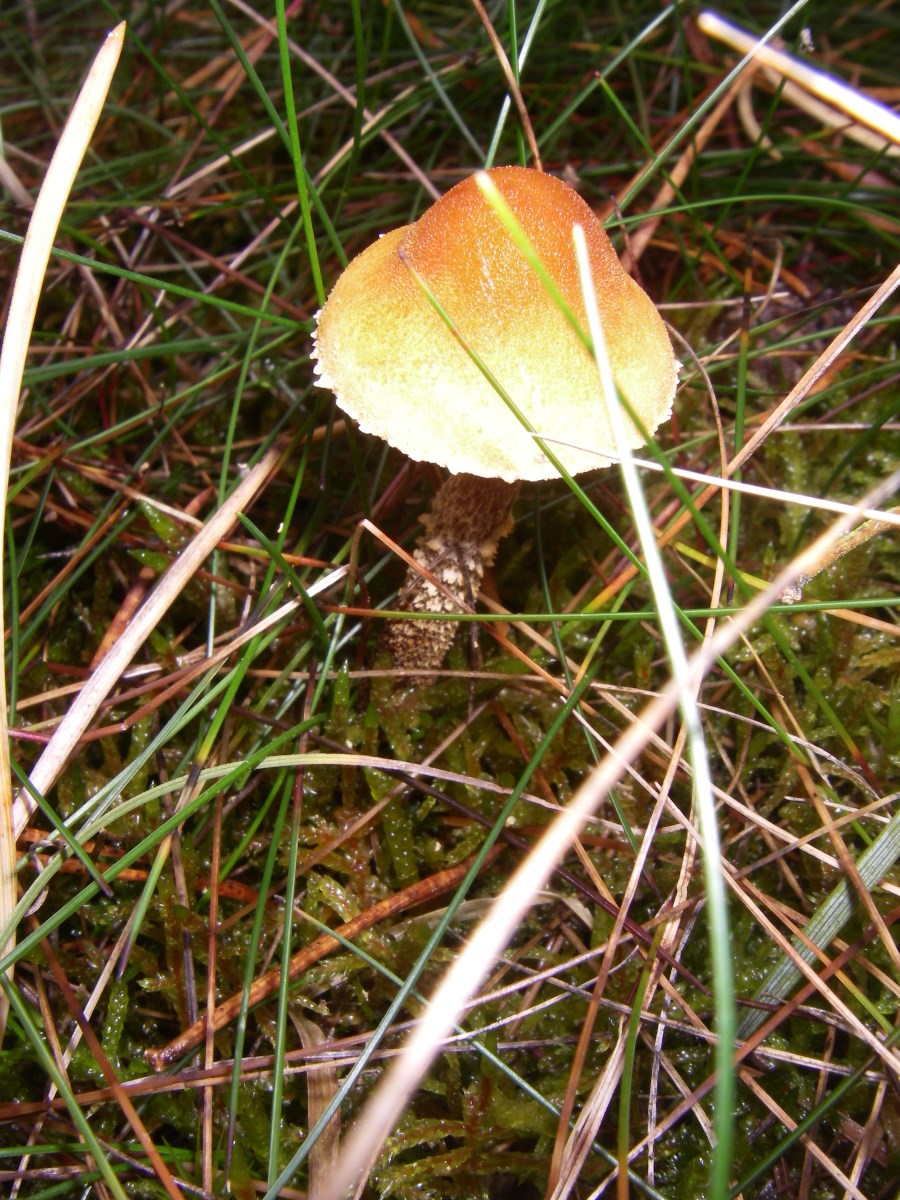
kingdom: Fungi
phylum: Basidiomycota
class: Agaricomycetes
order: Agaricales
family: Tricholomataceae
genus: Cystoderma
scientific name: Cystoderma jasonis
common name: gulkødet grynhat
